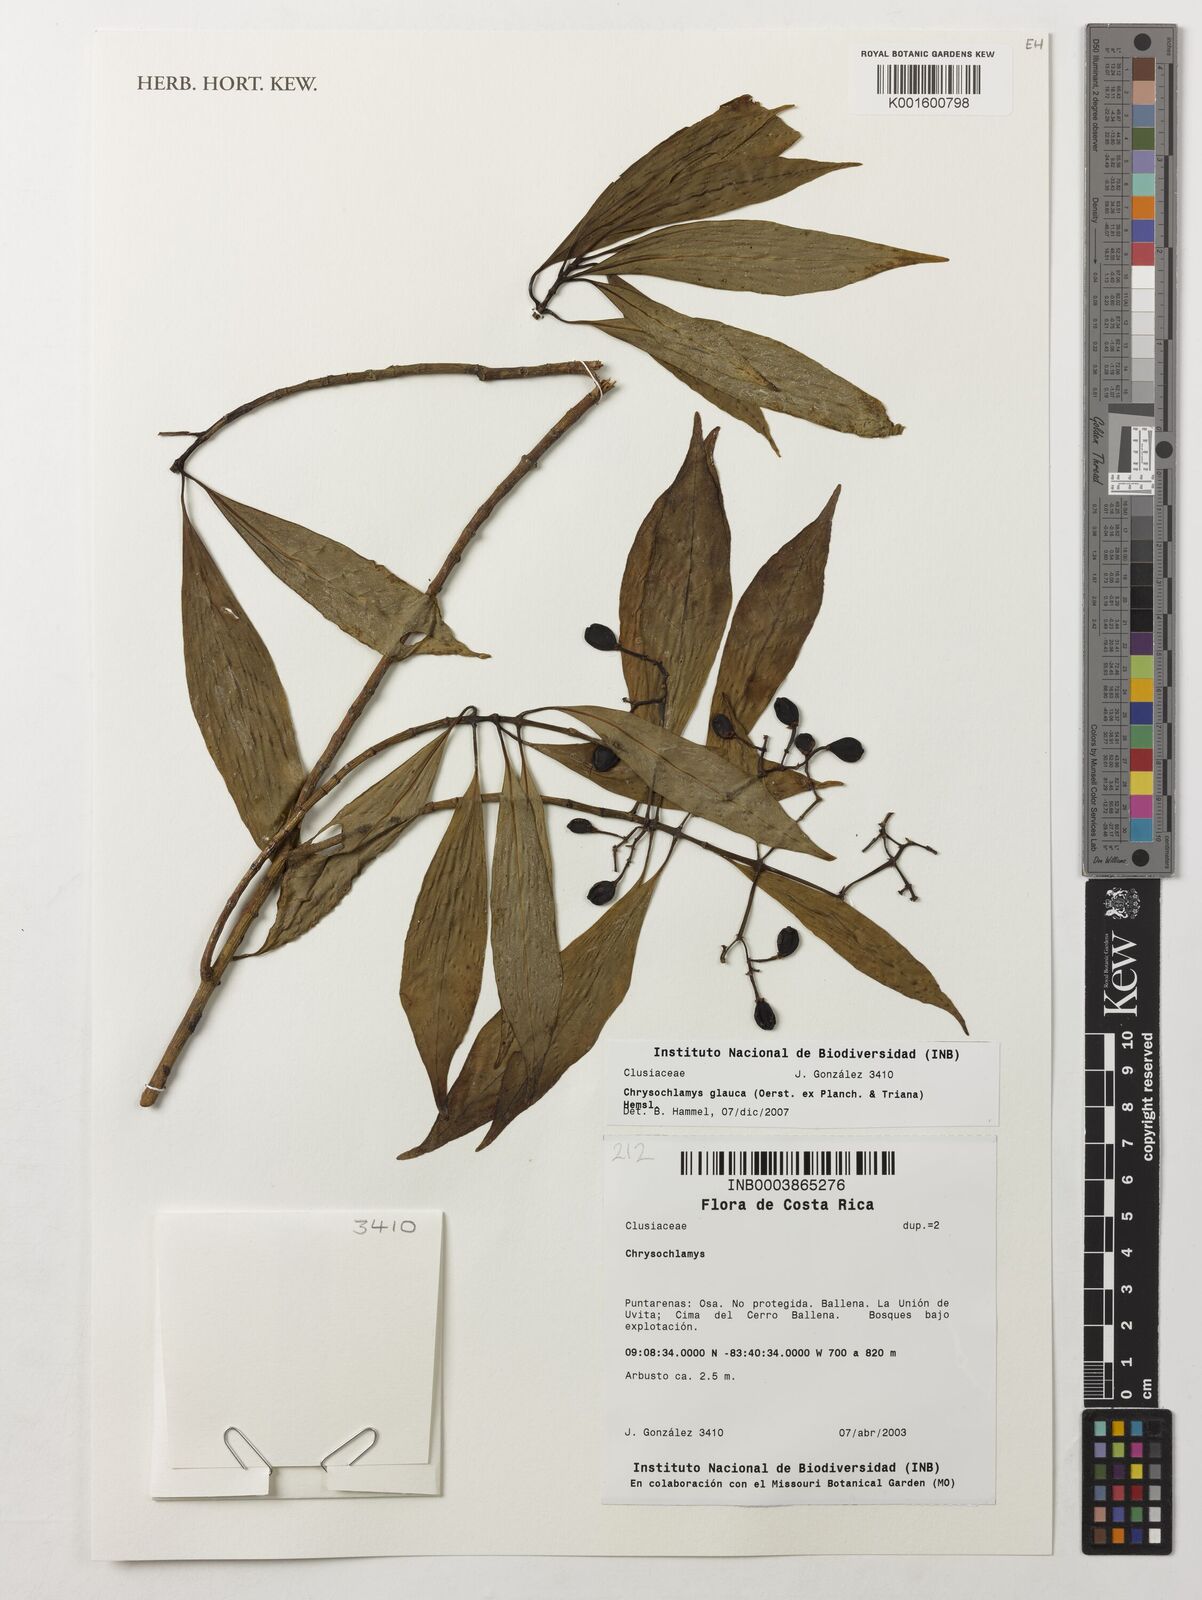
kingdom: Plantae
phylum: Tracheophyta
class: Magnoliopsida
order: Malpighiales
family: Clusiaceae
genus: Chrysochlamys
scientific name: Chrysochlamys glauca
